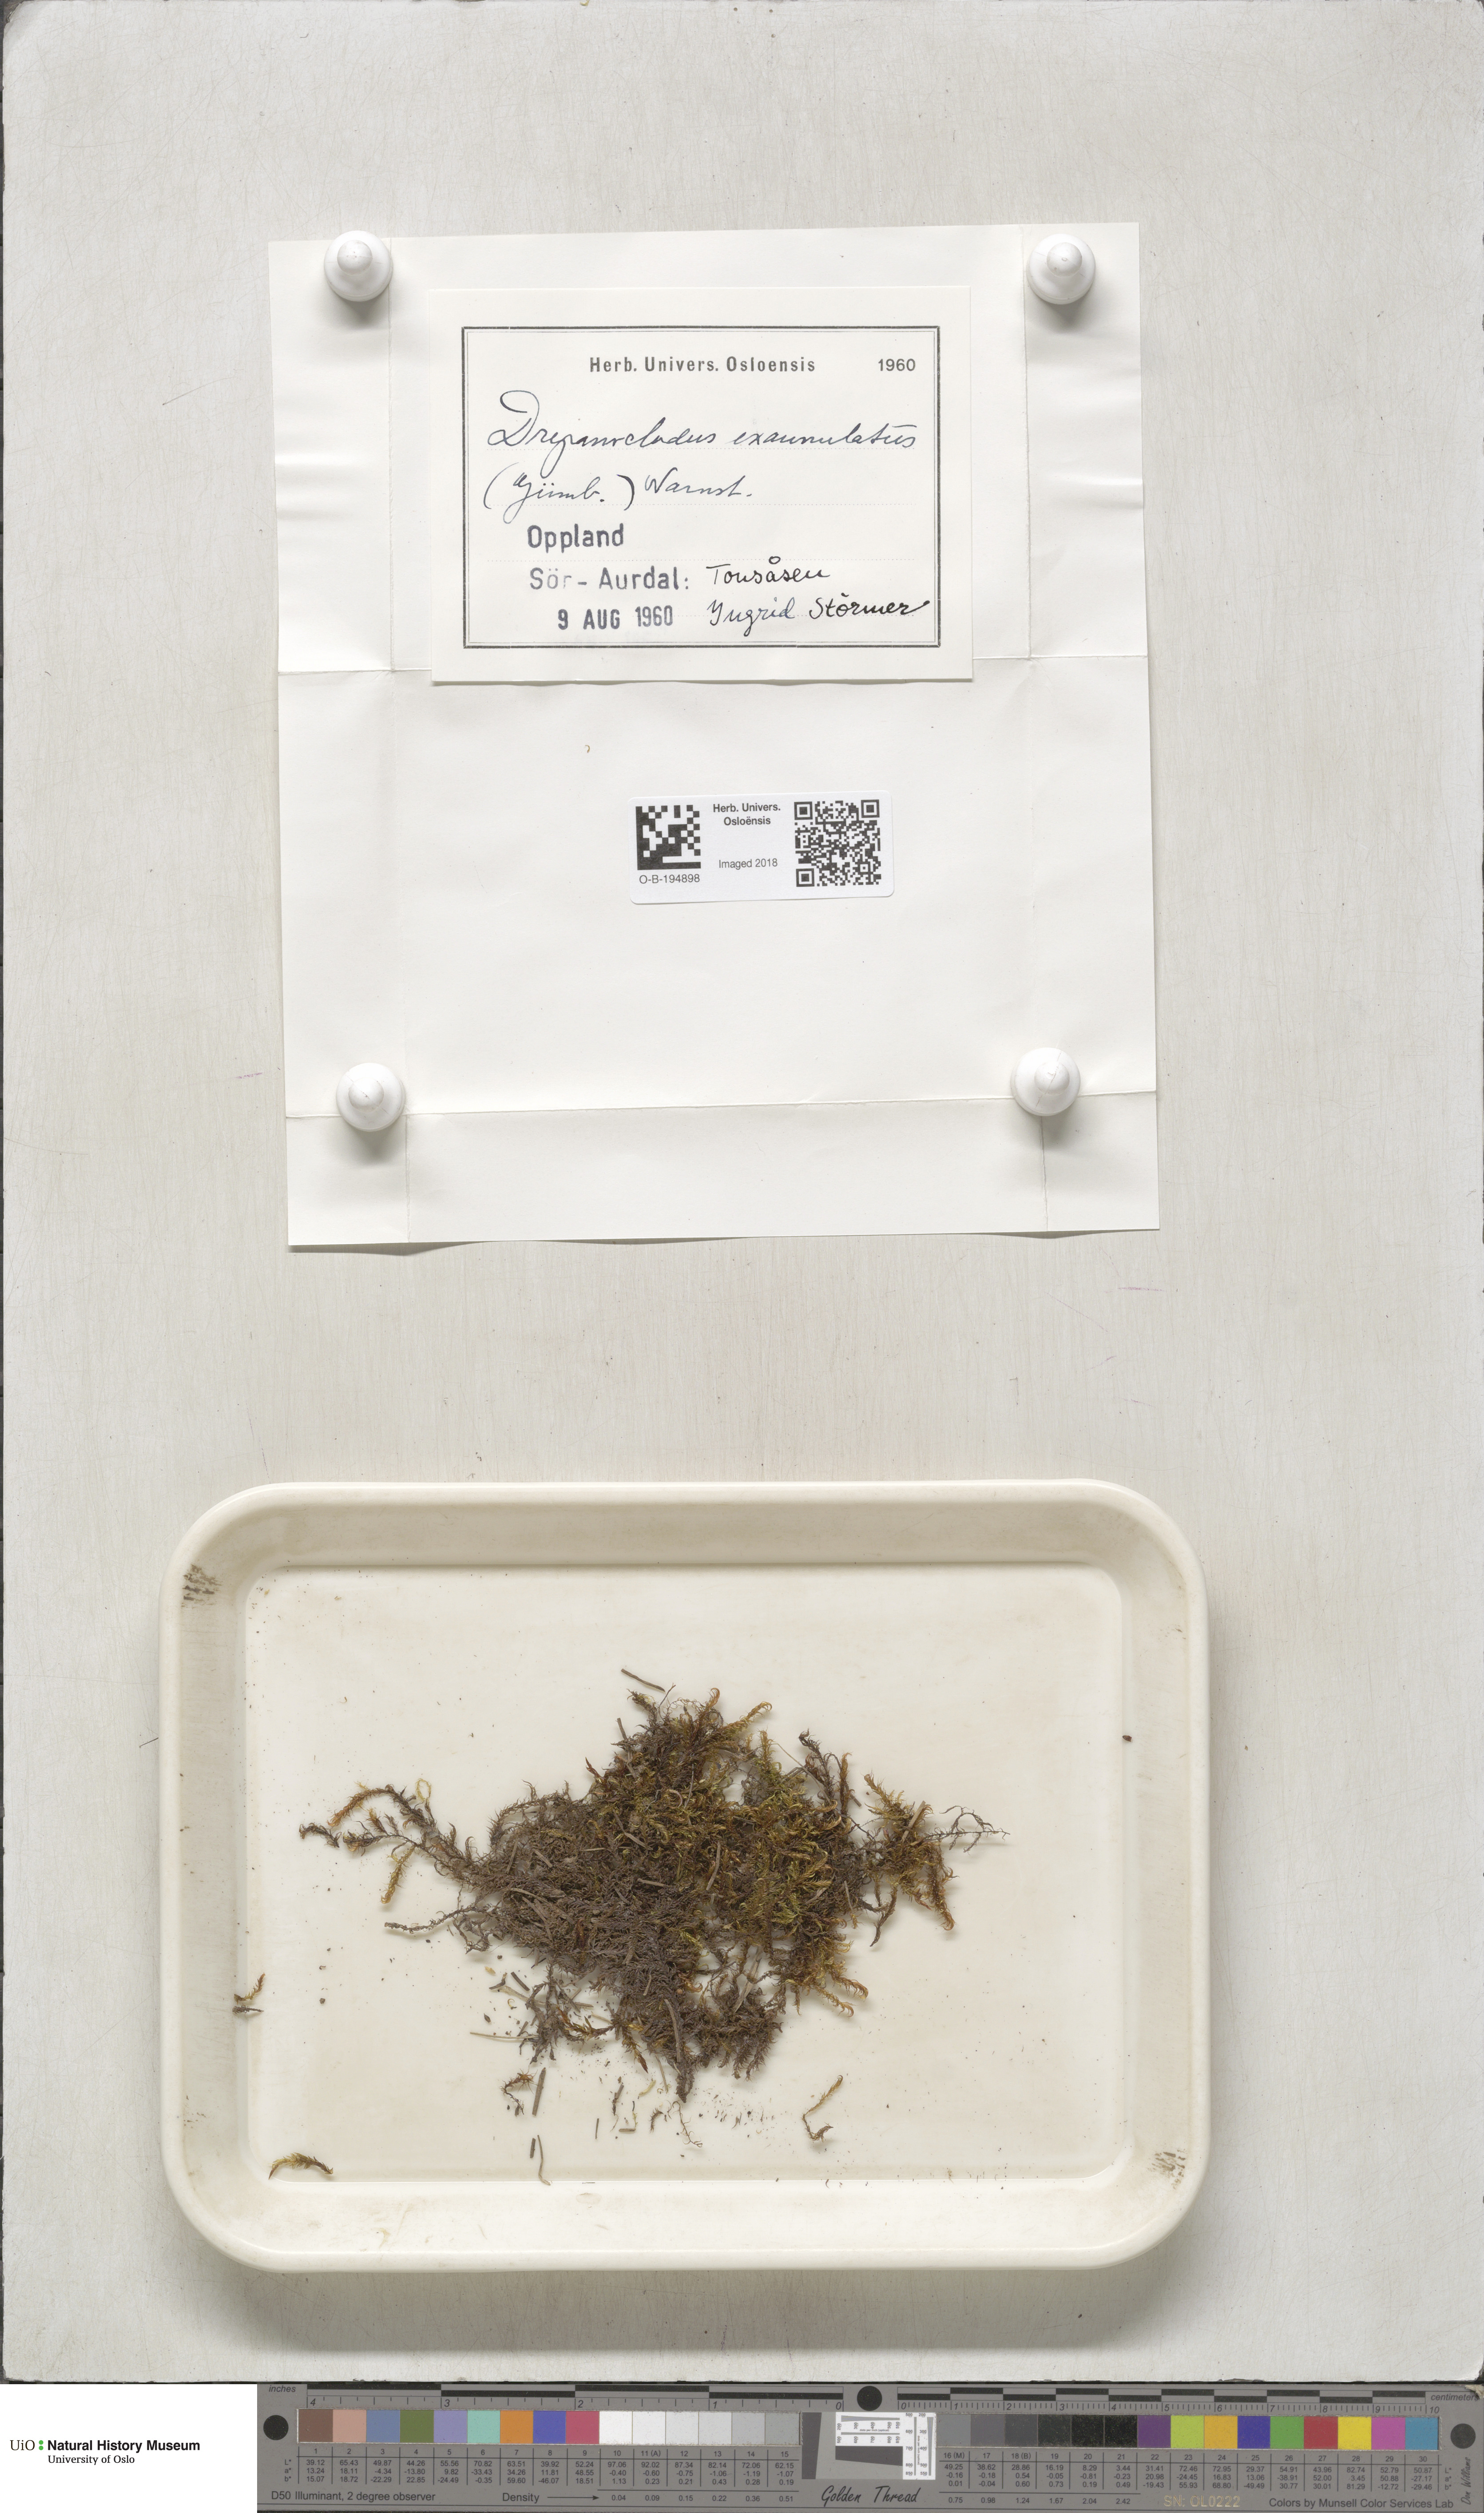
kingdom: Plantae
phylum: Bryophyta
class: Bryopsida
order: Hypnales
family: Calliergonaceae
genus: Sarmentypnum
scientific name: Sarmentypnum exannulatum
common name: Ringless spoon moss
